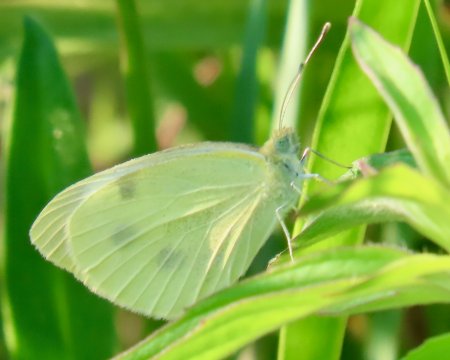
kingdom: Animalia
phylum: Arthropoda
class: Insecta
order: Lepidoptera
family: Pieridae
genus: Pieris
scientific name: Pieris rapae
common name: Cabbage White
